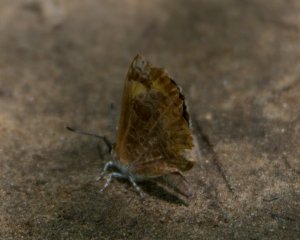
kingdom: Animalia
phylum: Arthropoda
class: Insecta
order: Lepidoptera
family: Lycaenidae
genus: Feniseca
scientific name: Feniseca tarquinius
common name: Harvester
